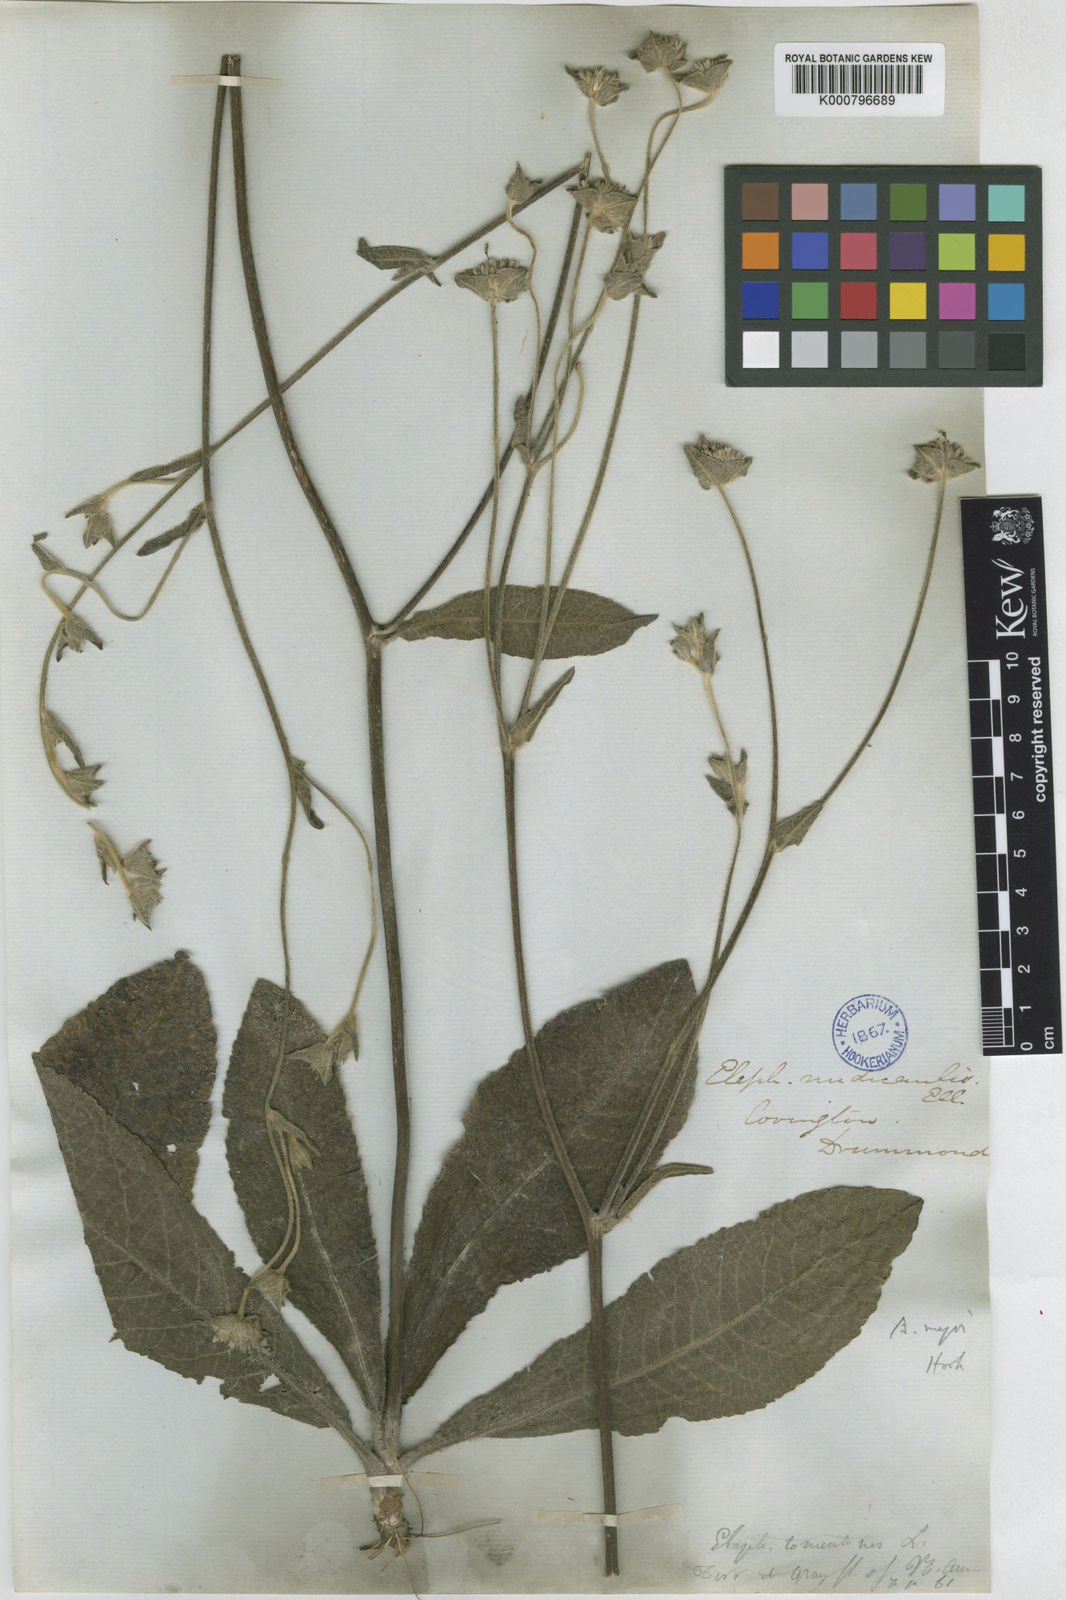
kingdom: Plantae
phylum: Tracheophyta
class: Magnoliopsida
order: Asterales
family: Asteraceae
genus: Elephantopus
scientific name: Elephantopus elatus
